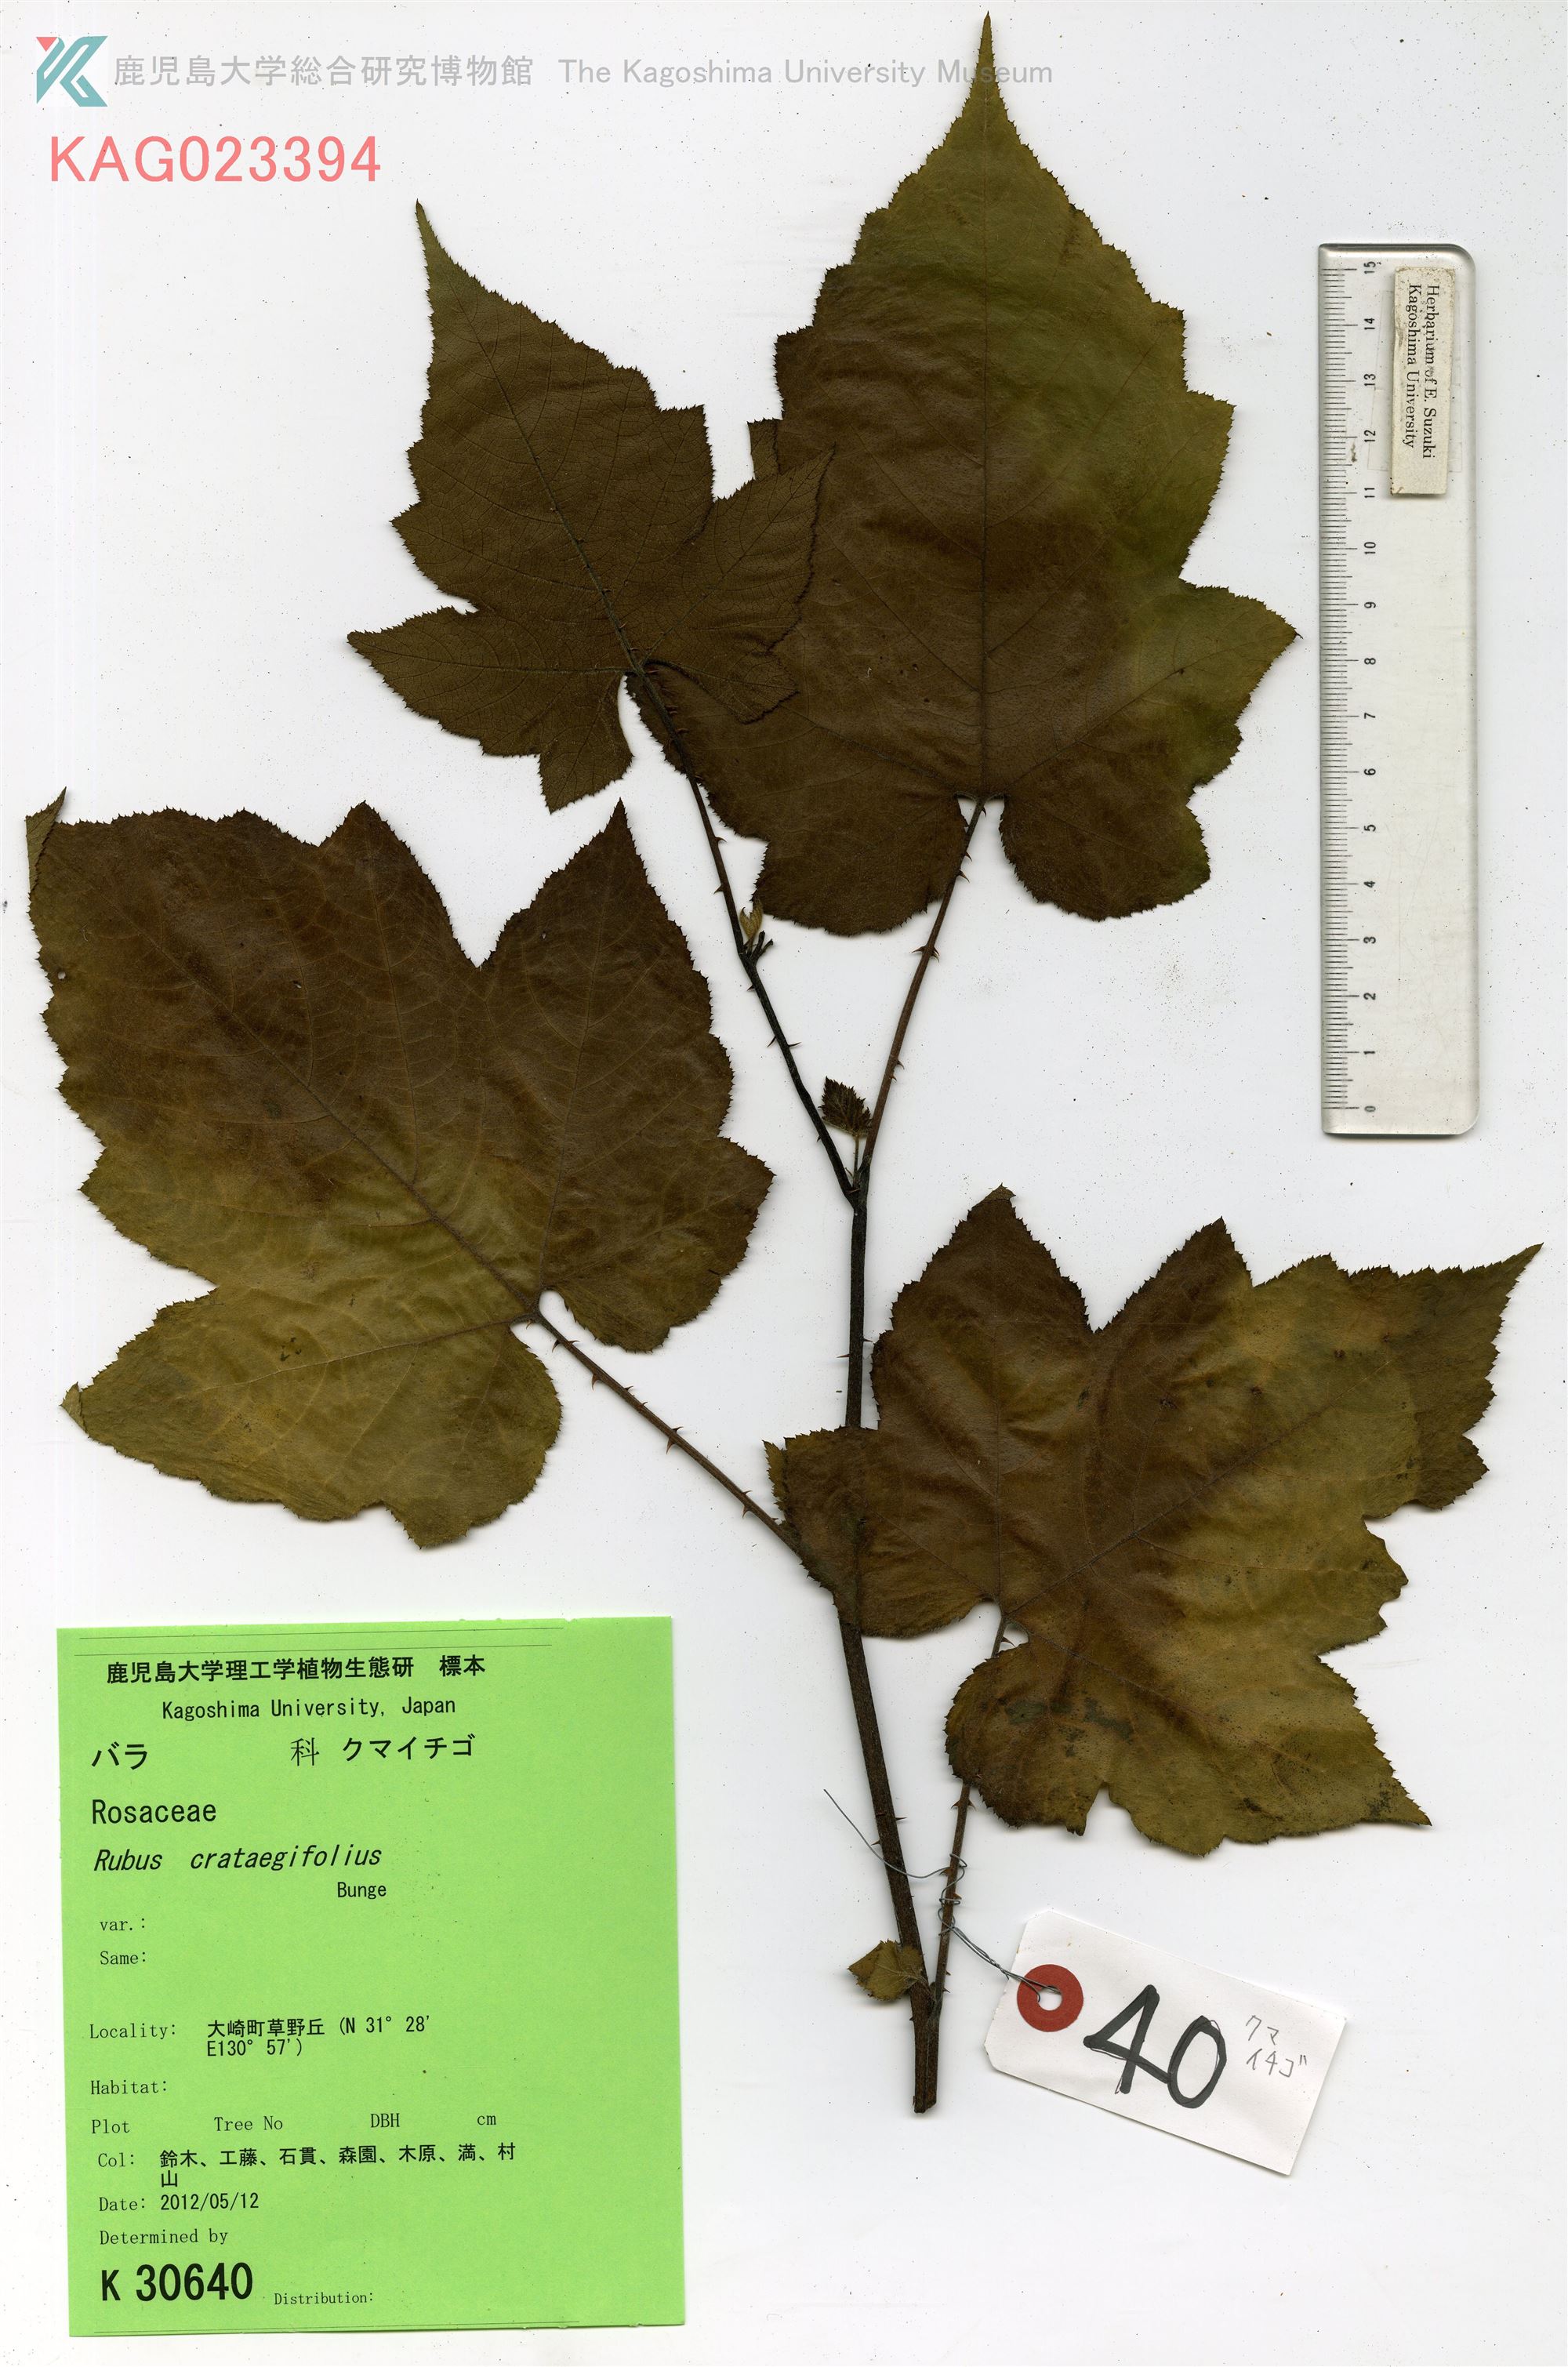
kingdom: Plantae
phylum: Tracheophyta
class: Magnoliopsida
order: Rosales
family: Rosaceae
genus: Rubus
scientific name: Rubus crataegifolius
